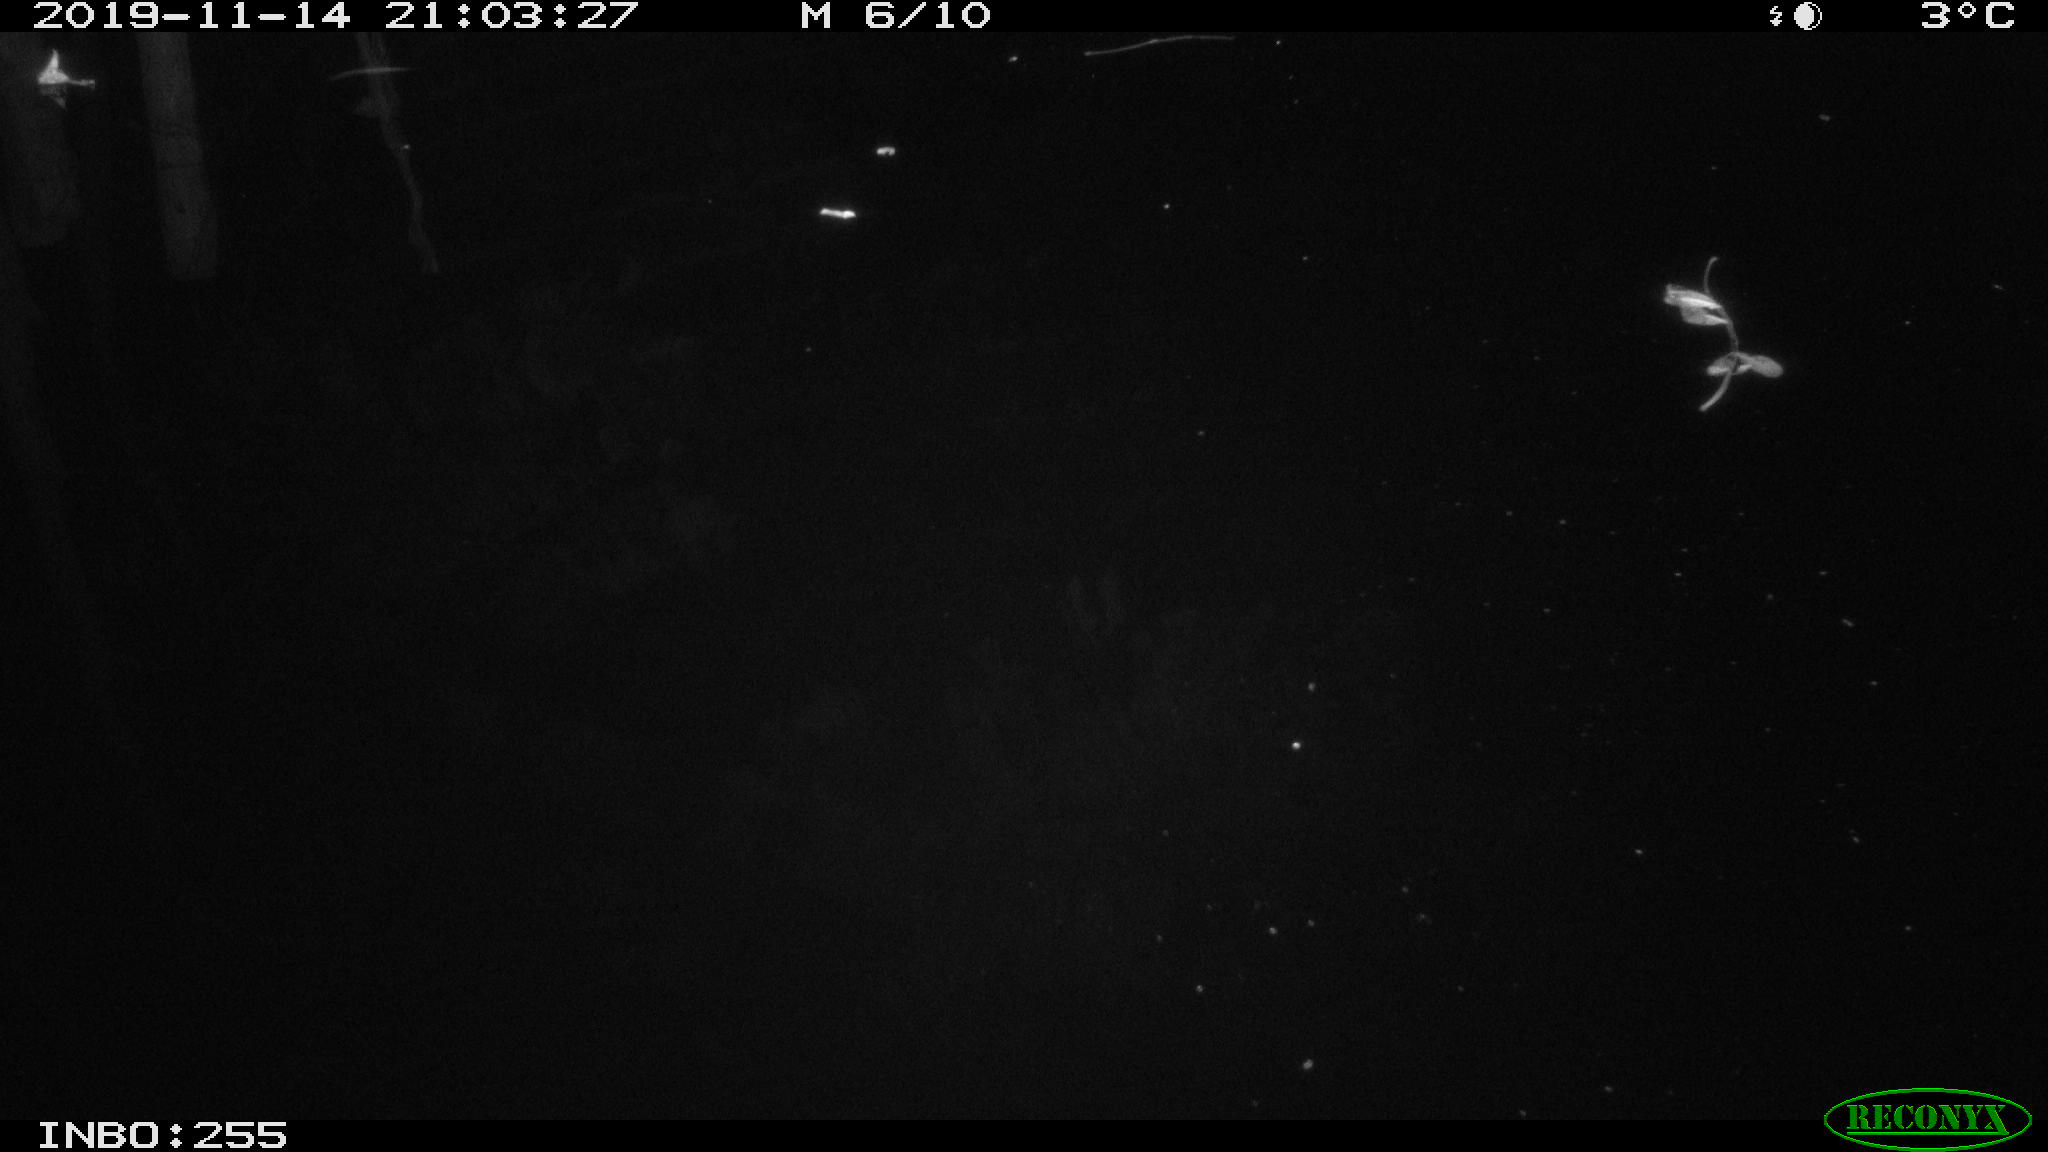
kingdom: Animalia
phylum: Chordata
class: Mammalia
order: Rodentia
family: Muridae
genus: Rattus
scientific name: Rattus norvegicus
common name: Brown rat
